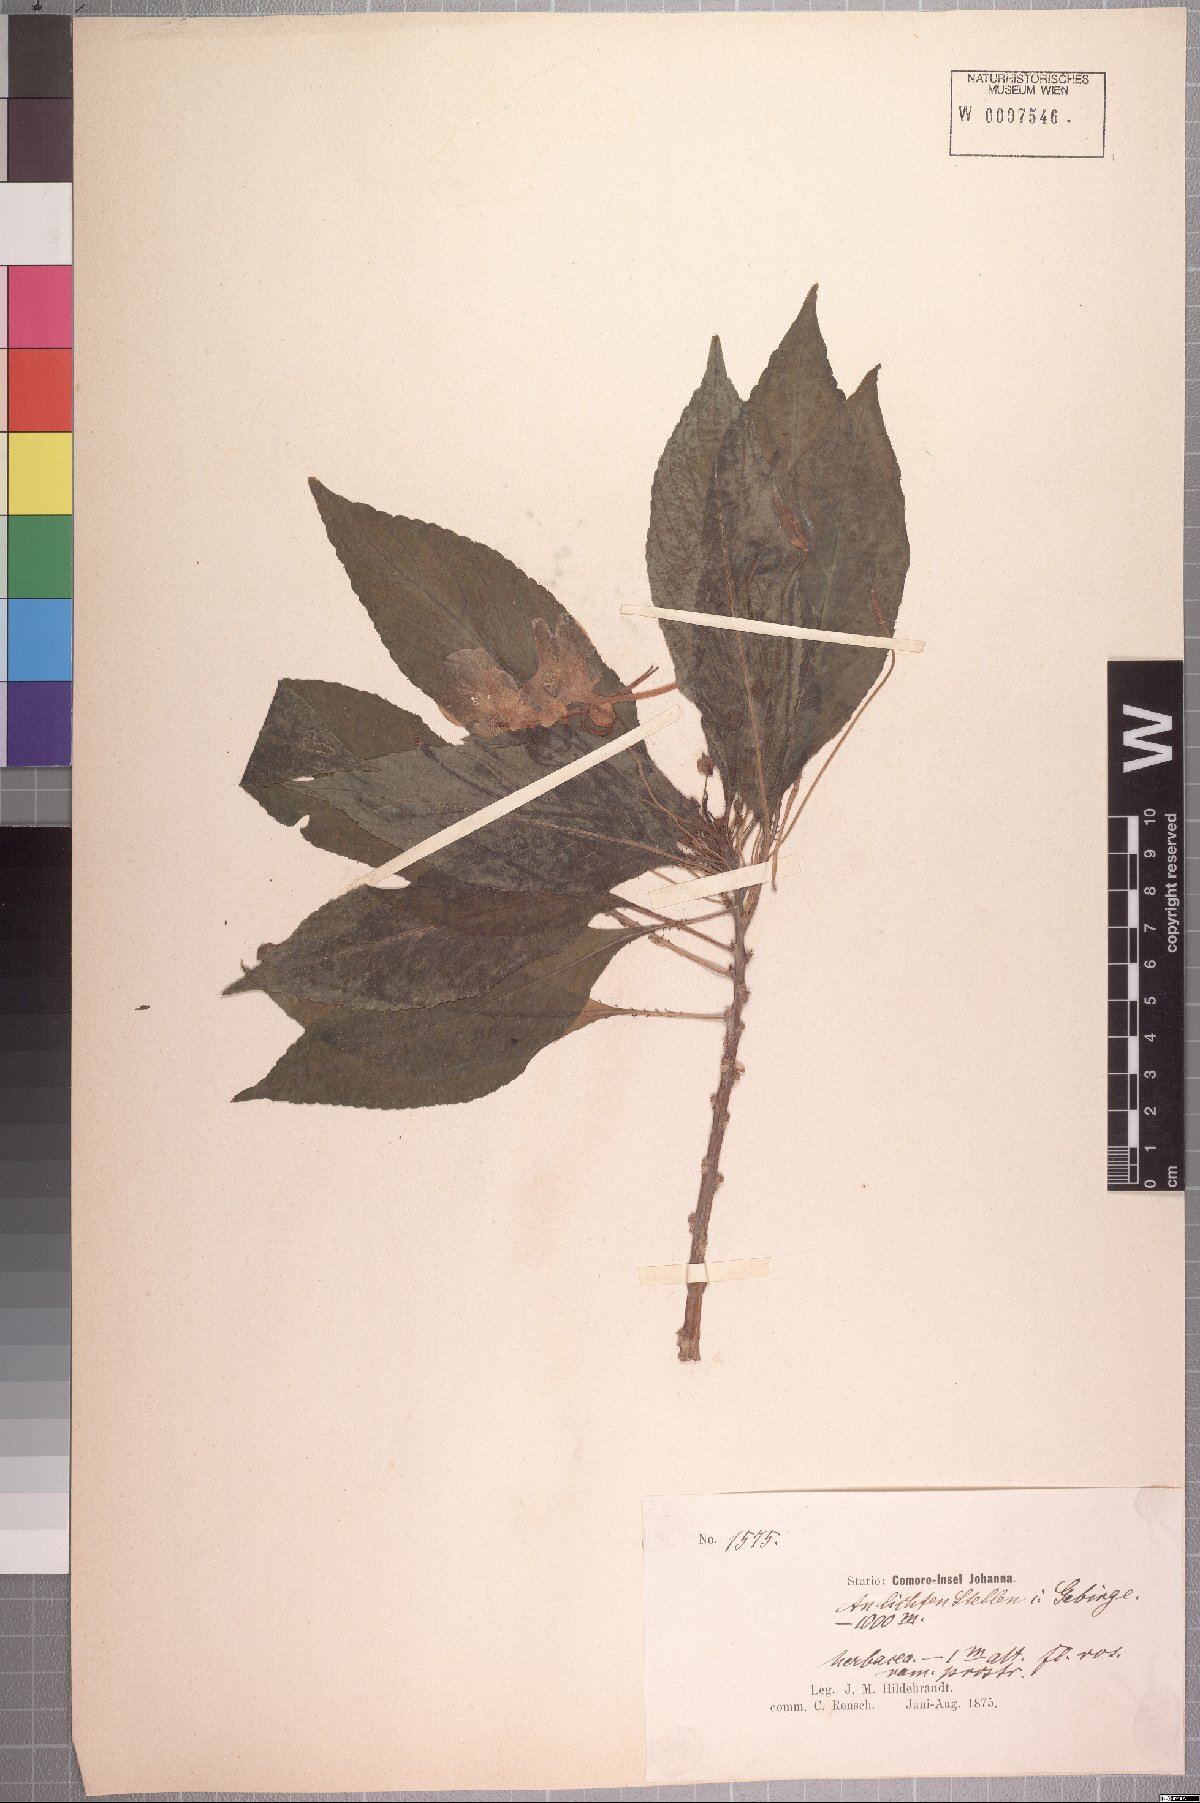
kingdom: Plantae
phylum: Tracheophyta
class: Magnoliopsida
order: Ericales
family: Balsaminaceae
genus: Impatiens
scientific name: Impatiens comorensis
